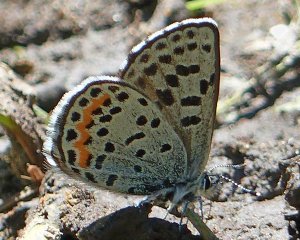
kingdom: Animalia
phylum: Arthropoda
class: Insecta
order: Lepidoptera
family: Lycaenidae
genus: Euphilotes
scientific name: Euphilotes battoides
